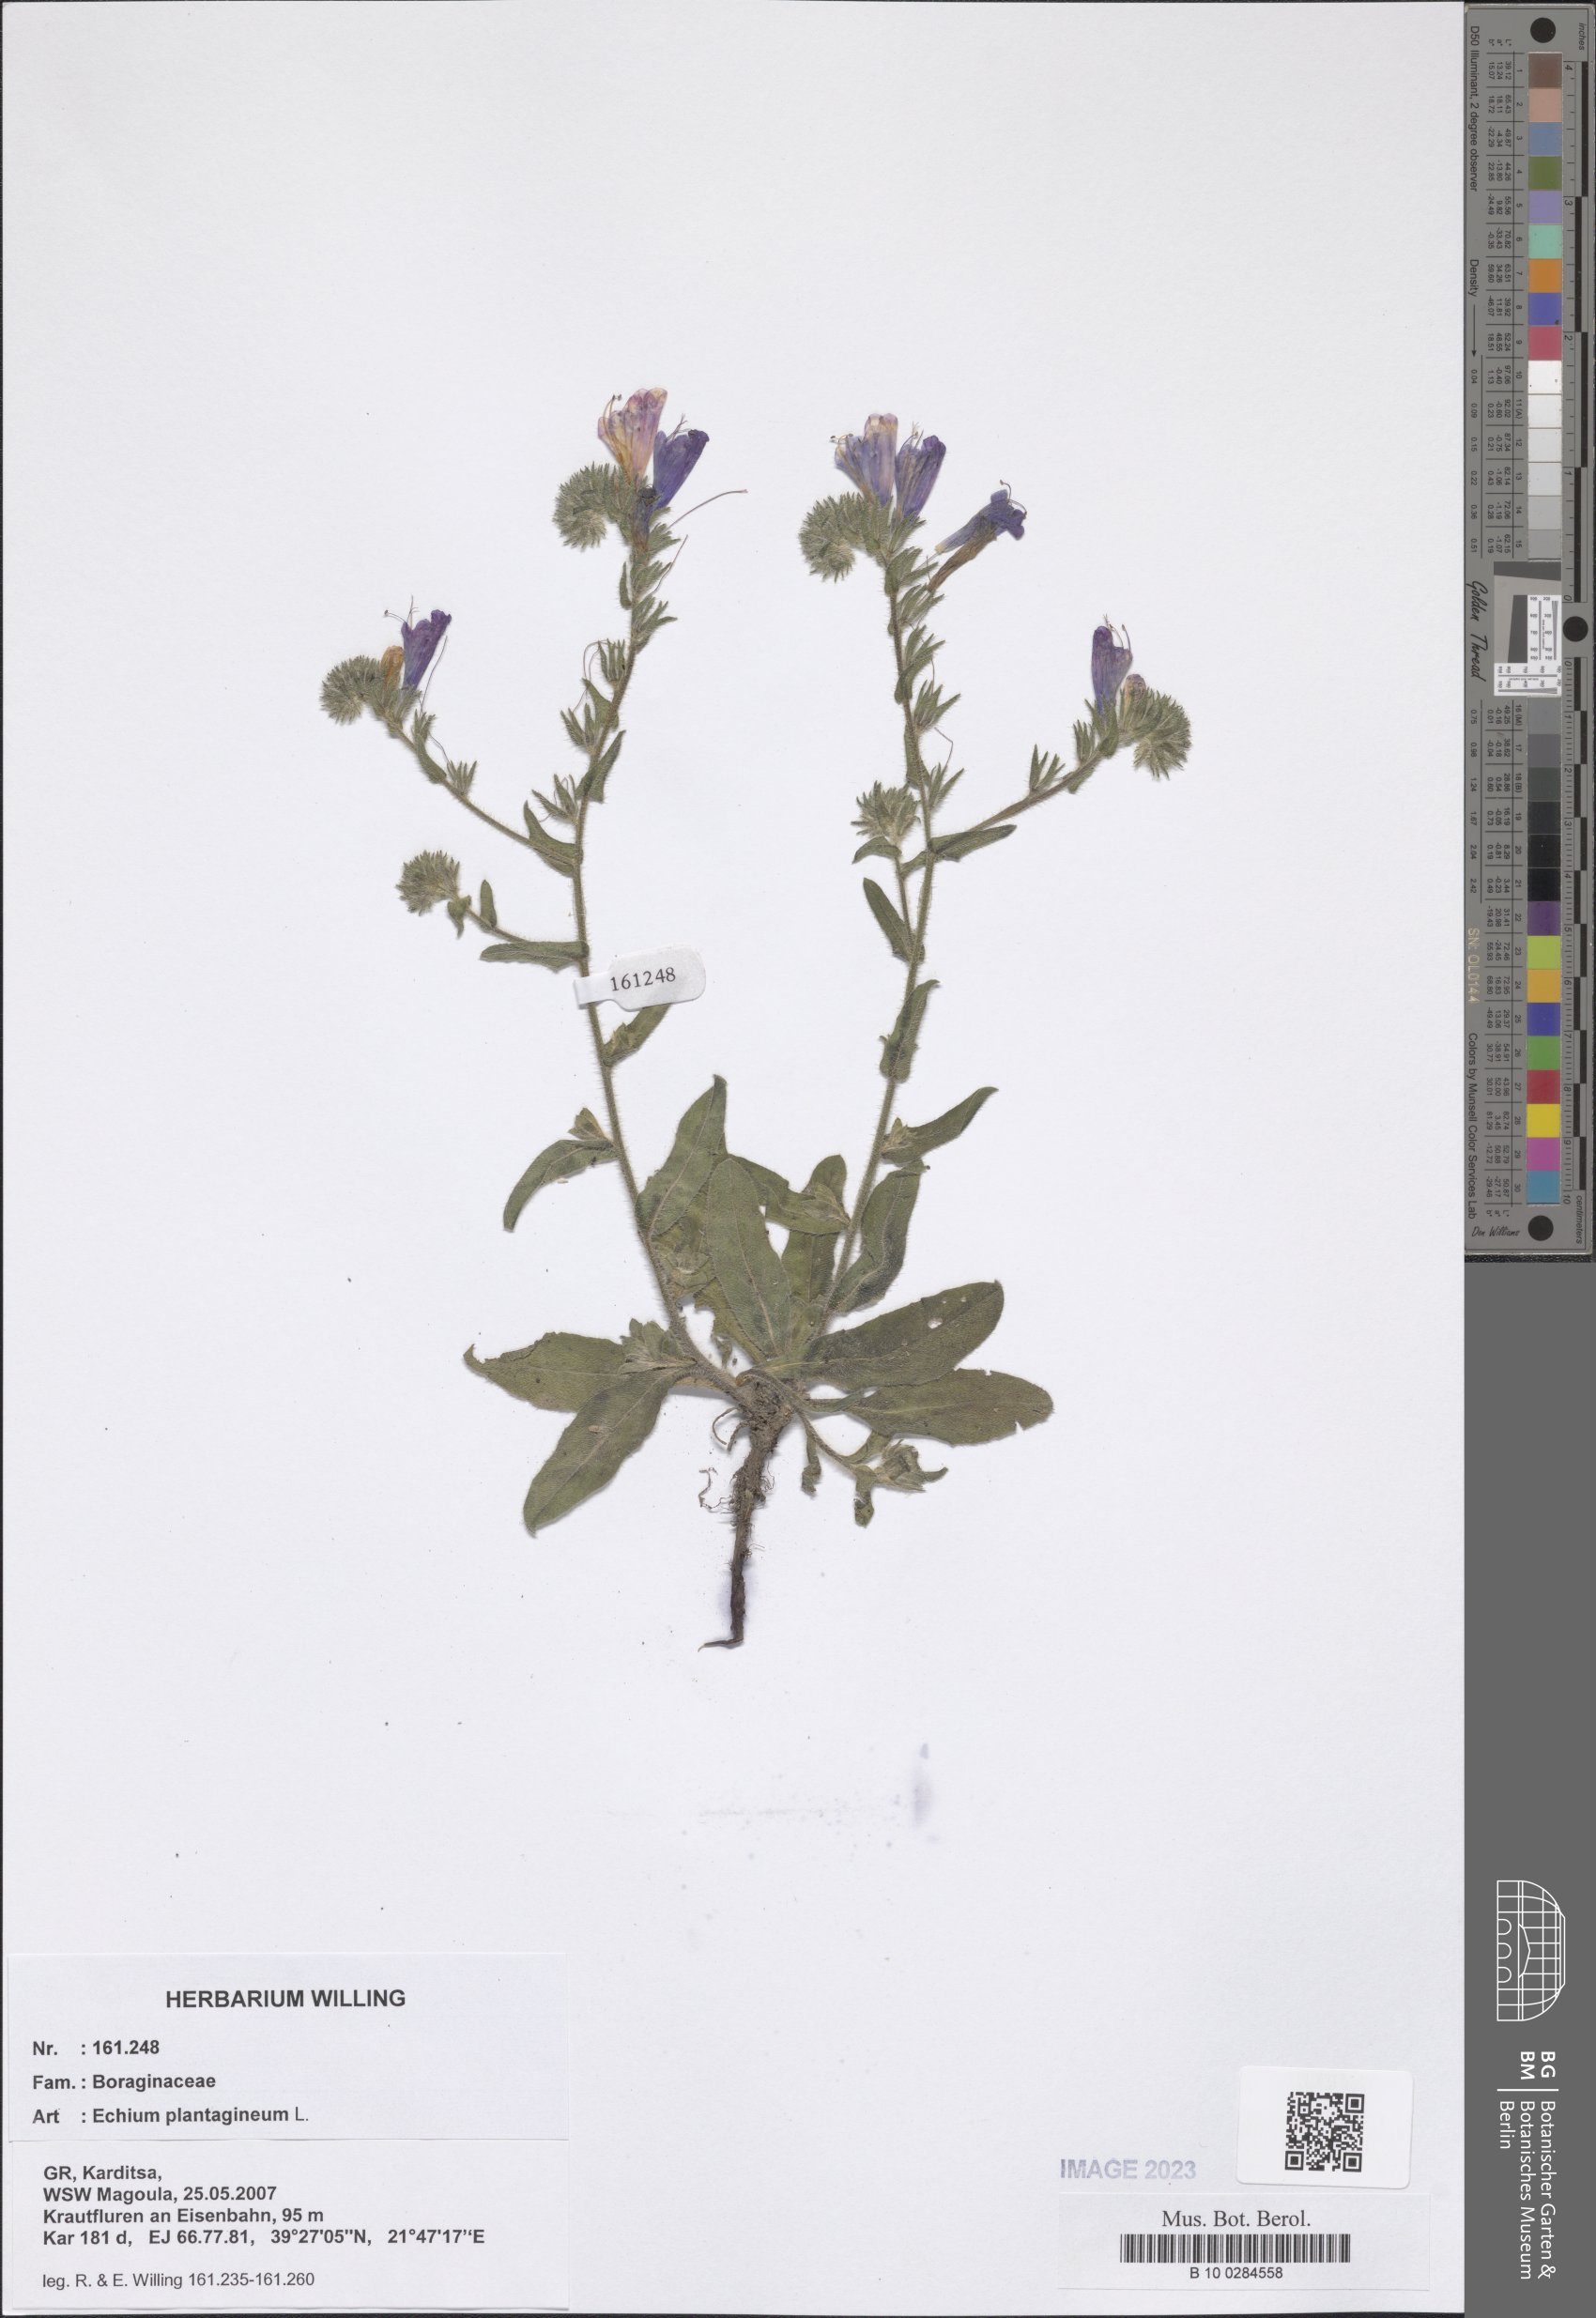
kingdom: Plantae
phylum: Tracheophyta
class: Magnoliopsida
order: Boraginales
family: Boraginaceae
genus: Echium
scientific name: Echium plantagineum
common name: Purple viper's-bugloss
